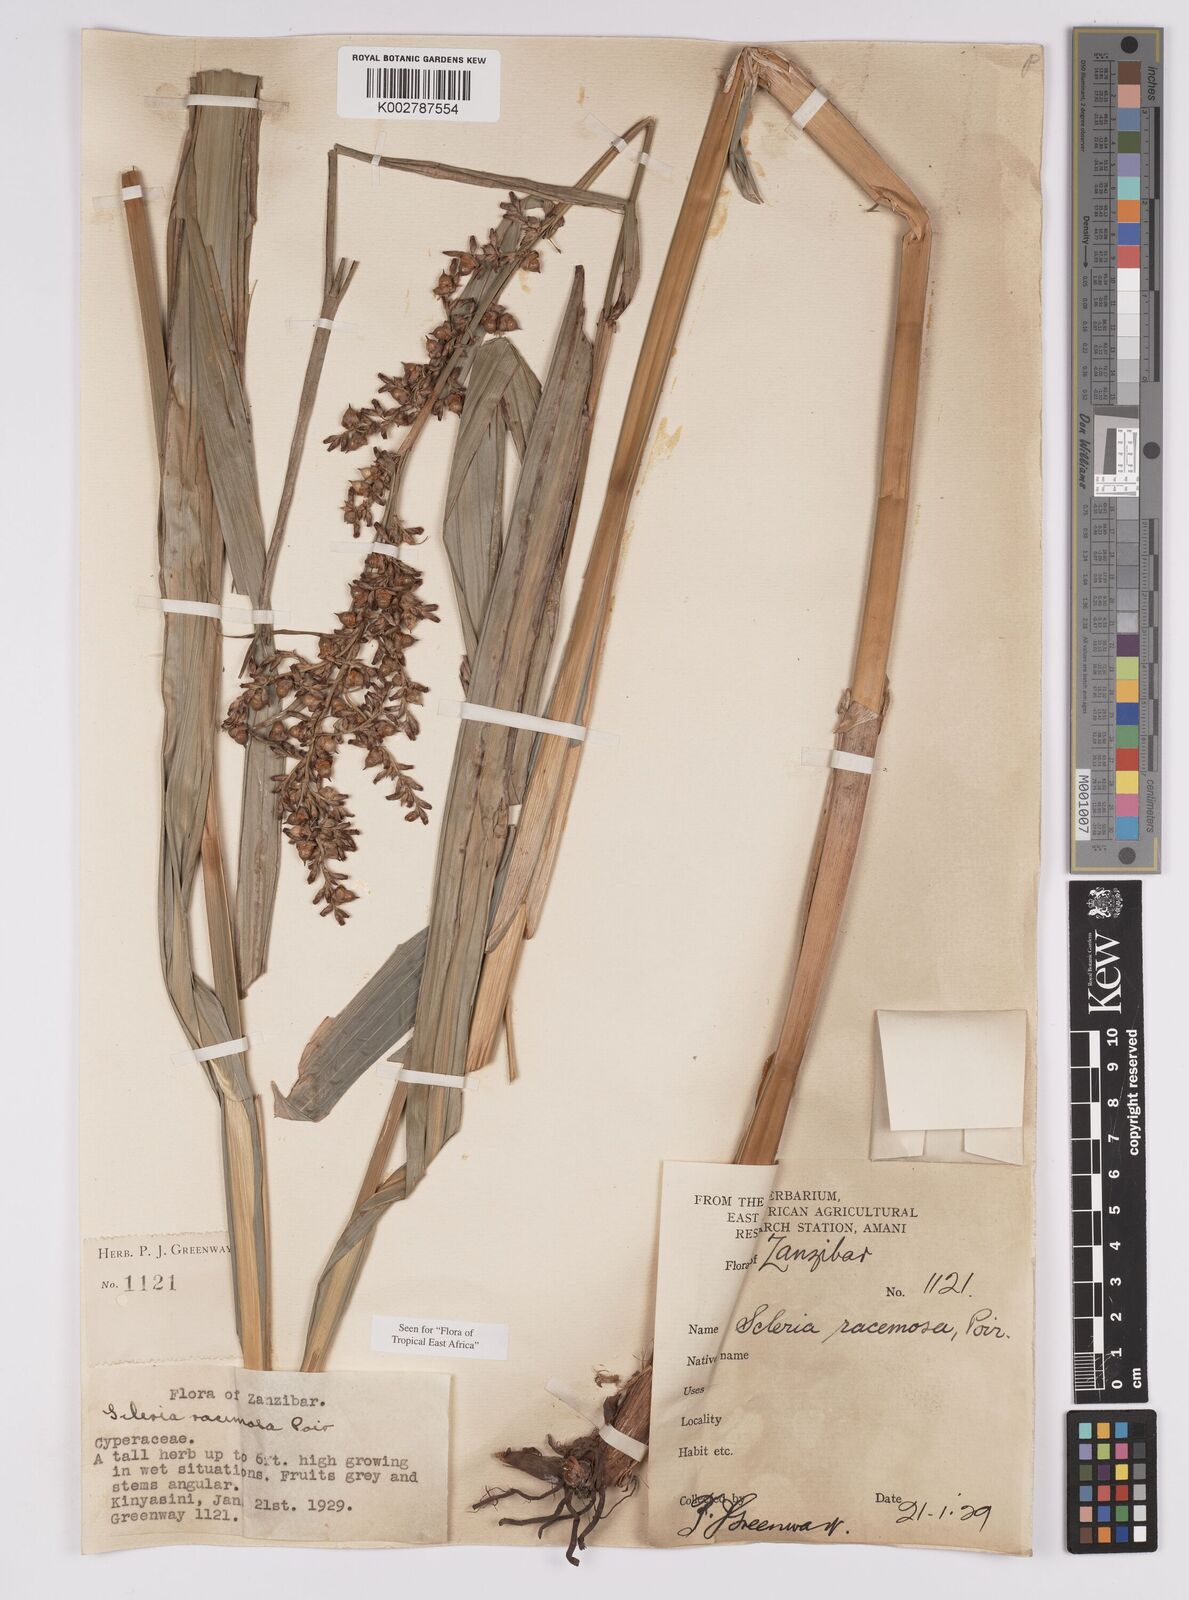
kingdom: Plantae
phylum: Tracheophyta
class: Liliopsida
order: Poales
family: Cyperaceae
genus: Scleria
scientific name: Scleria racemosa
